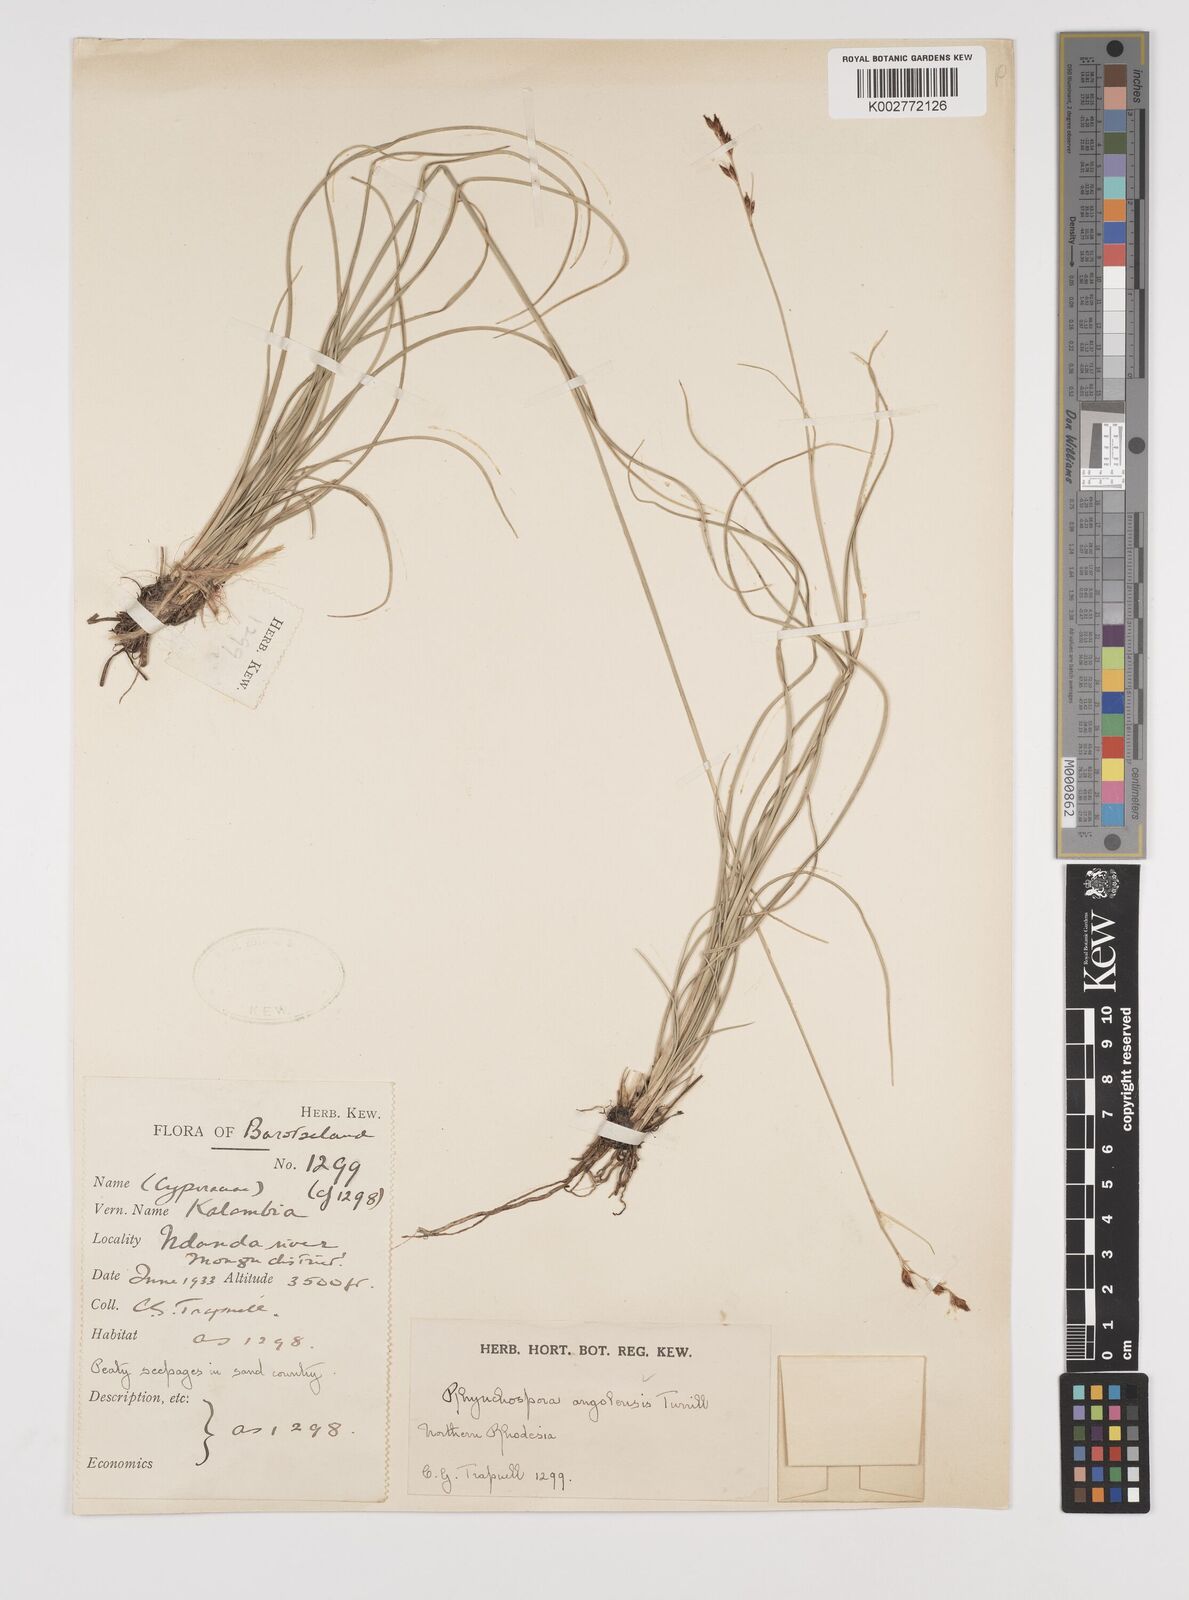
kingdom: Plantae
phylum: Tracheophyta
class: Liliopsida
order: Poales
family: Cyperaceae
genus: Rhynchospora
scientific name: Rhynchospora angolensis
